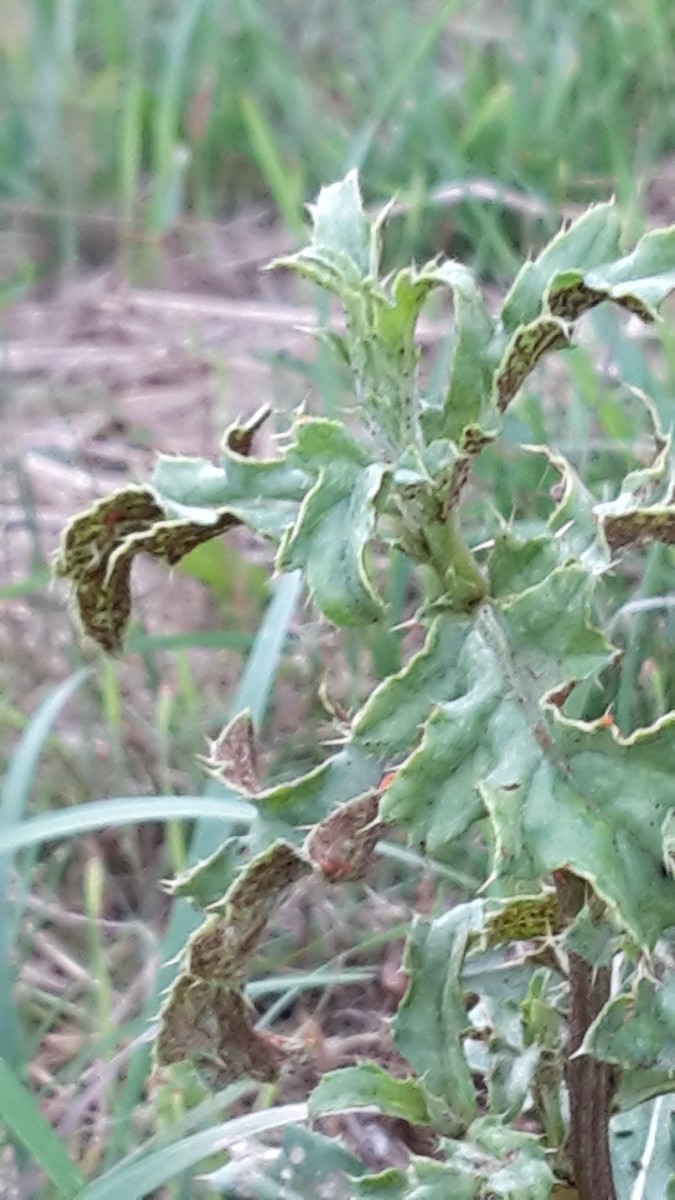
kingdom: Fungi
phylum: Basidiomycota
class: Pucciniomycetes
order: Pucciniales
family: Pucciniaceae
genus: Puccinia
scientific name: Puccinia suaveolens
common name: tidsel-tvecellerust
